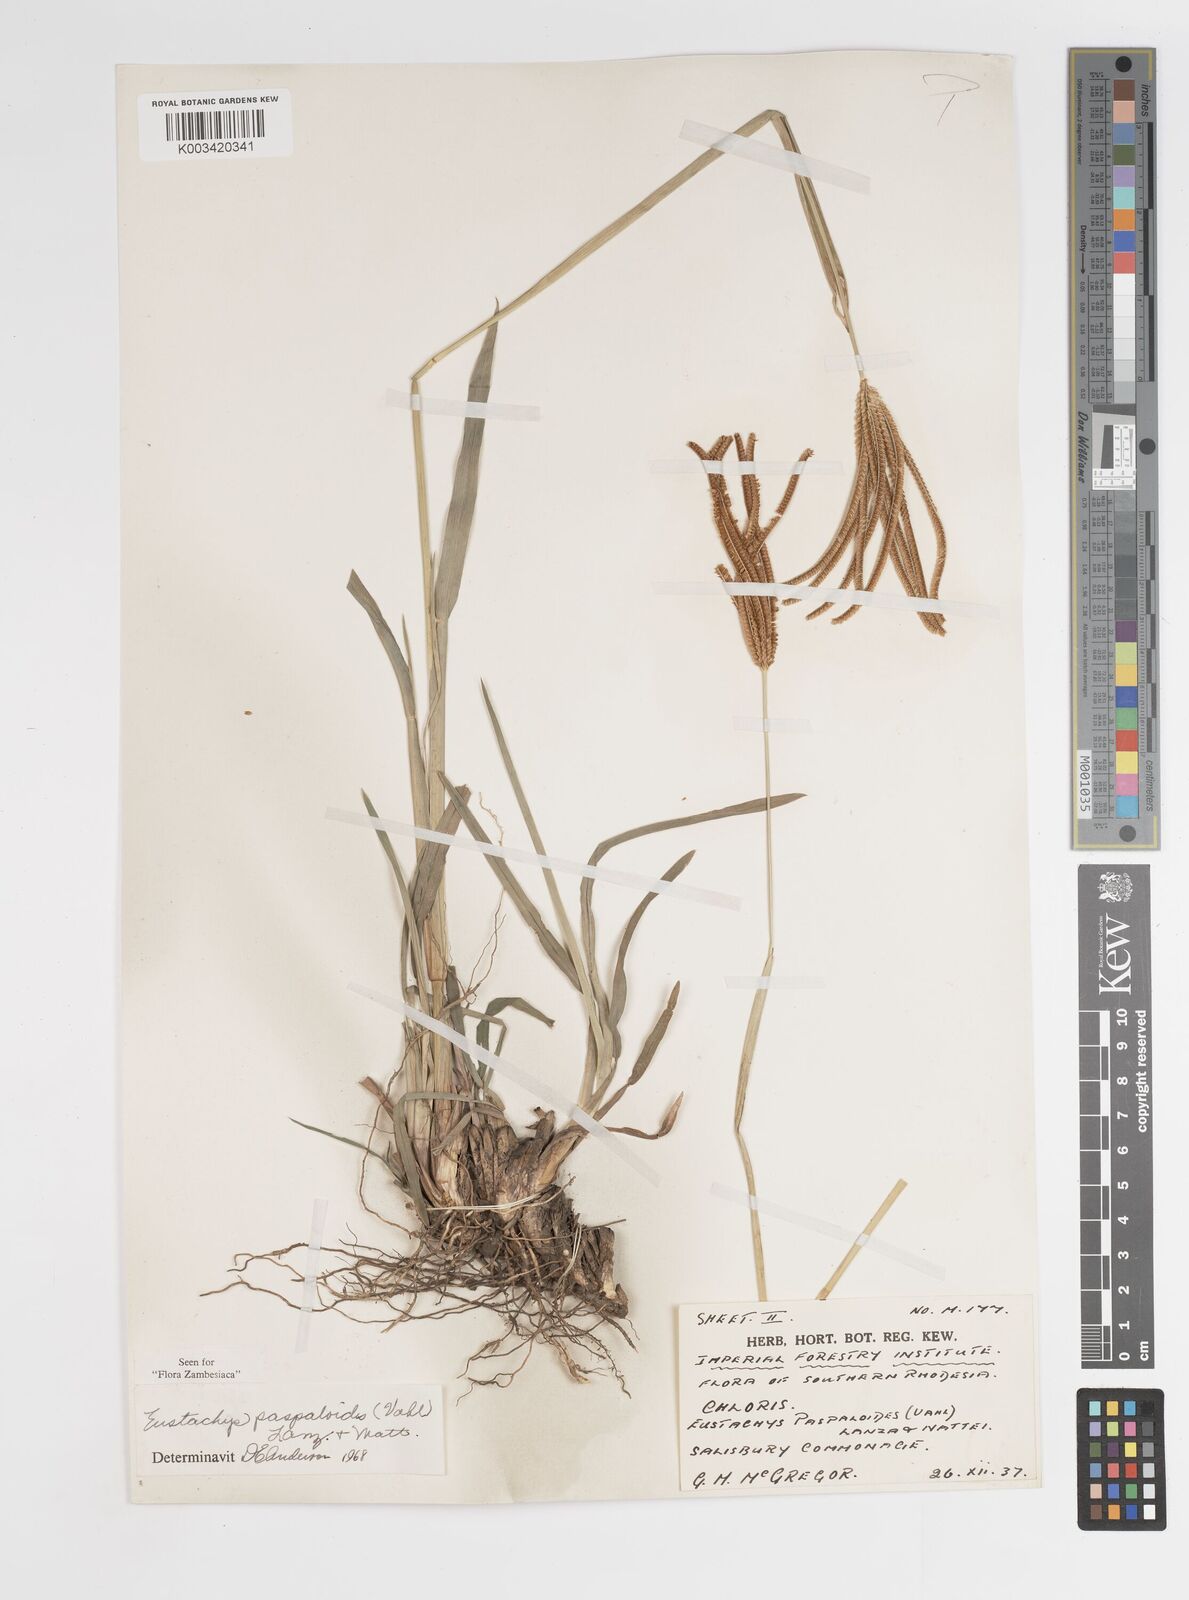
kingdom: Plantae
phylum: Tracheophyta
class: Liliopsida
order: Poales
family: Poaceae
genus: Eustachys
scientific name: Eustachys paspaloides
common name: Caribbean fingergrass
